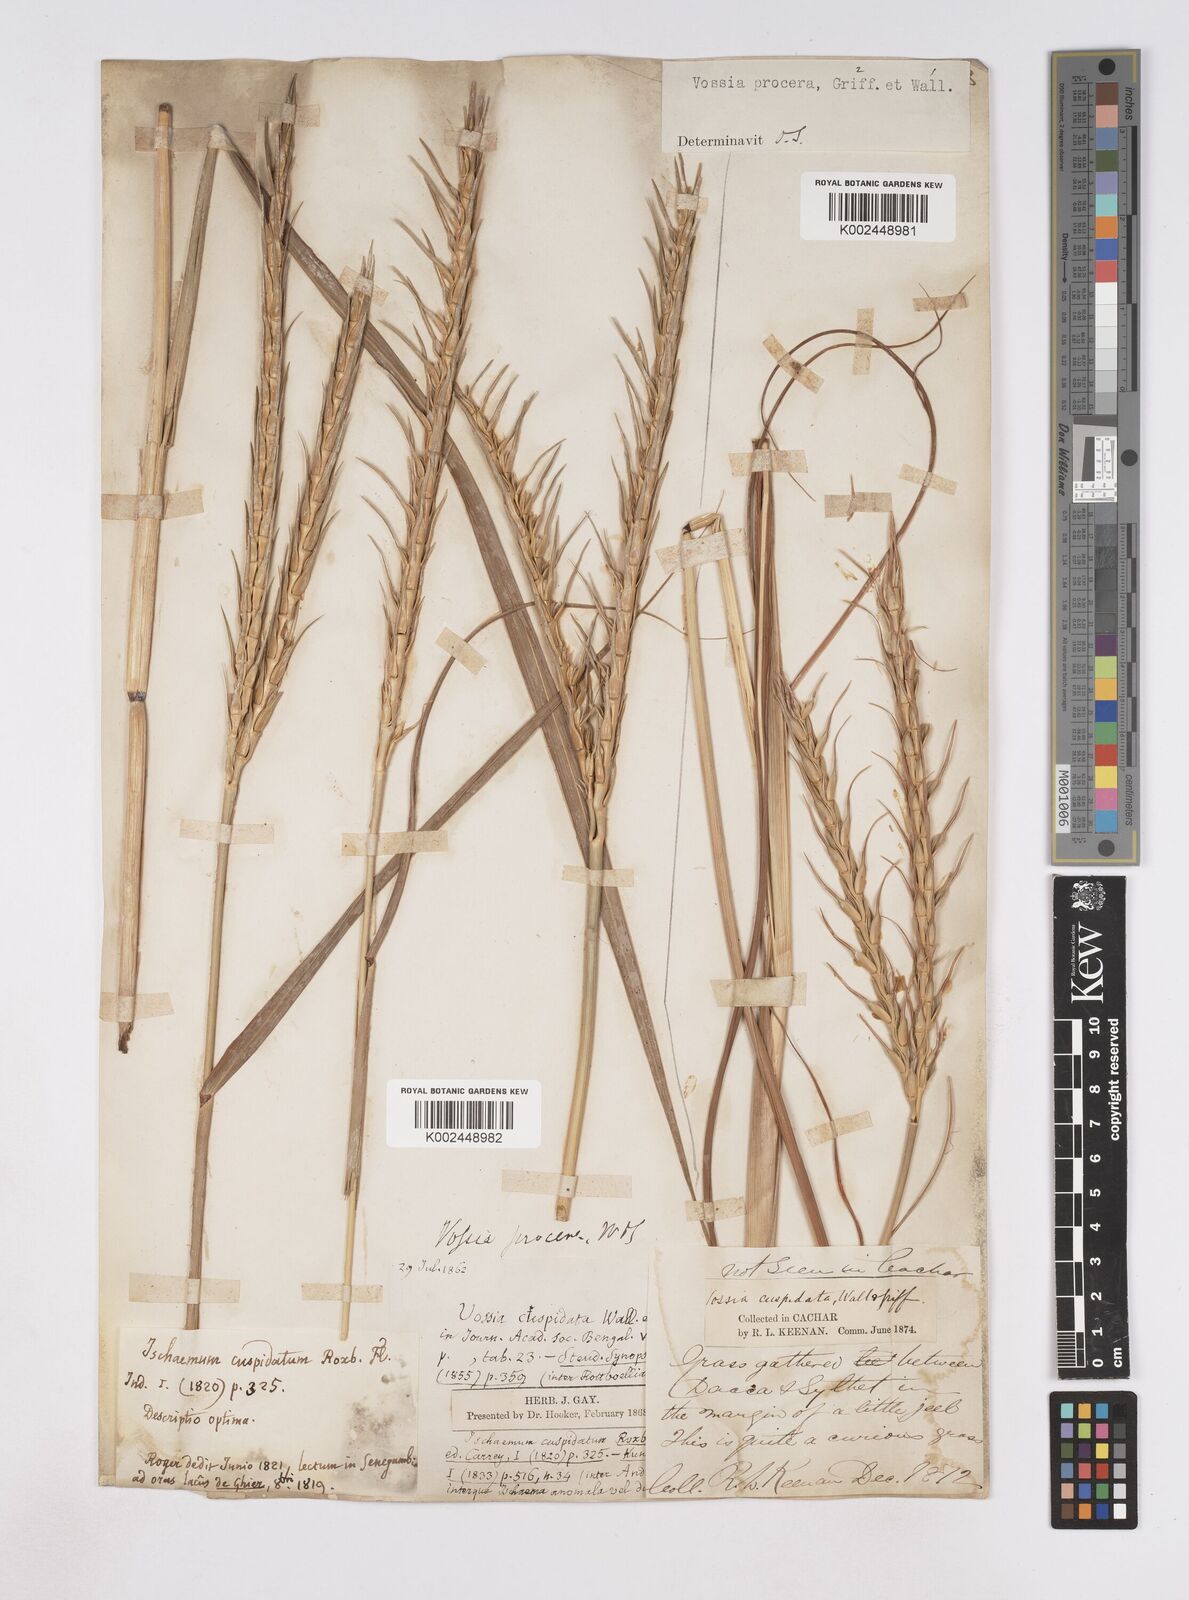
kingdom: Plantae
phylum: Tracheophyta
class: Liliopsida
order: Poales
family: Poaceae
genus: Vossia
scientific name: Vossia cuspidata
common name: Hippo grass
